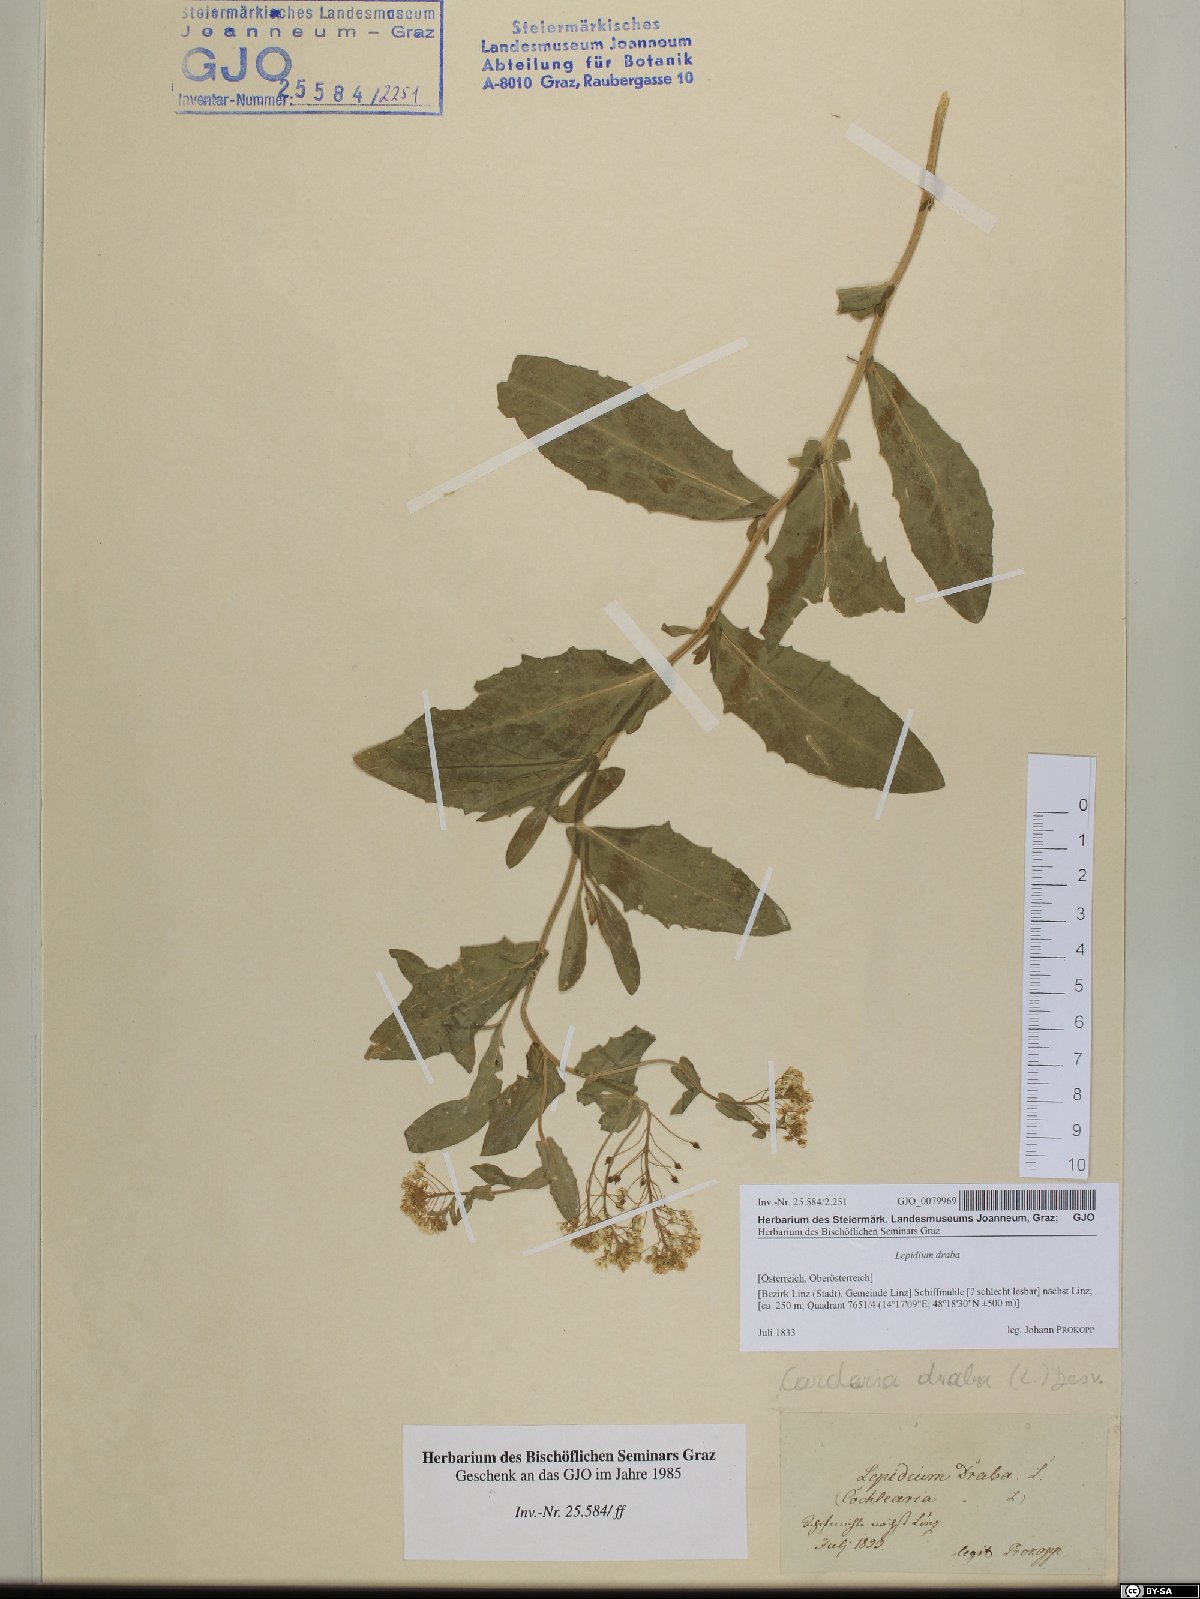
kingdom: Plantae
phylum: Tracheophyta
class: Magnoliopsida
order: Brassicales
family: Brassicaceae
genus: Lepidium
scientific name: Lepidium draba
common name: Hoary cress
